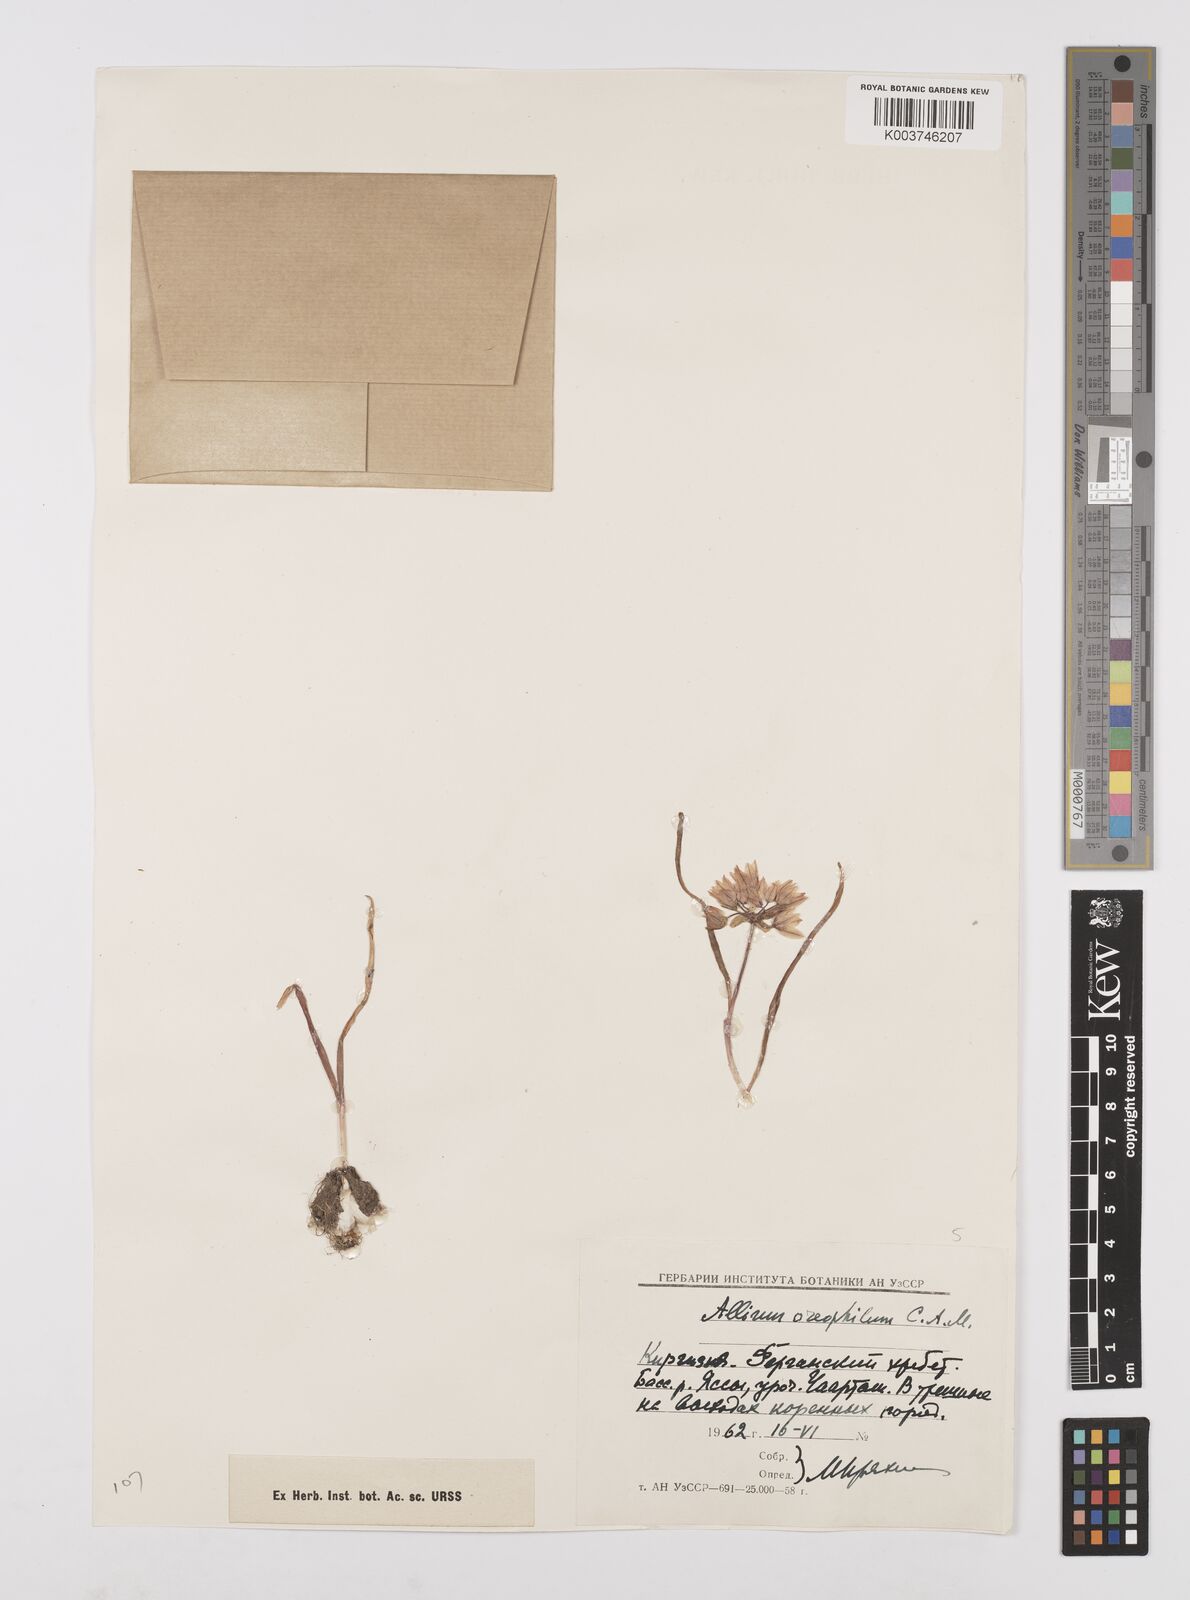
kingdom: Plantae
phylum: Tracheophyta
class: Liliopsida
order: Asparagales
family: Amaryllidaceae
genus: Allium
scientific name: Allium oreophilum
